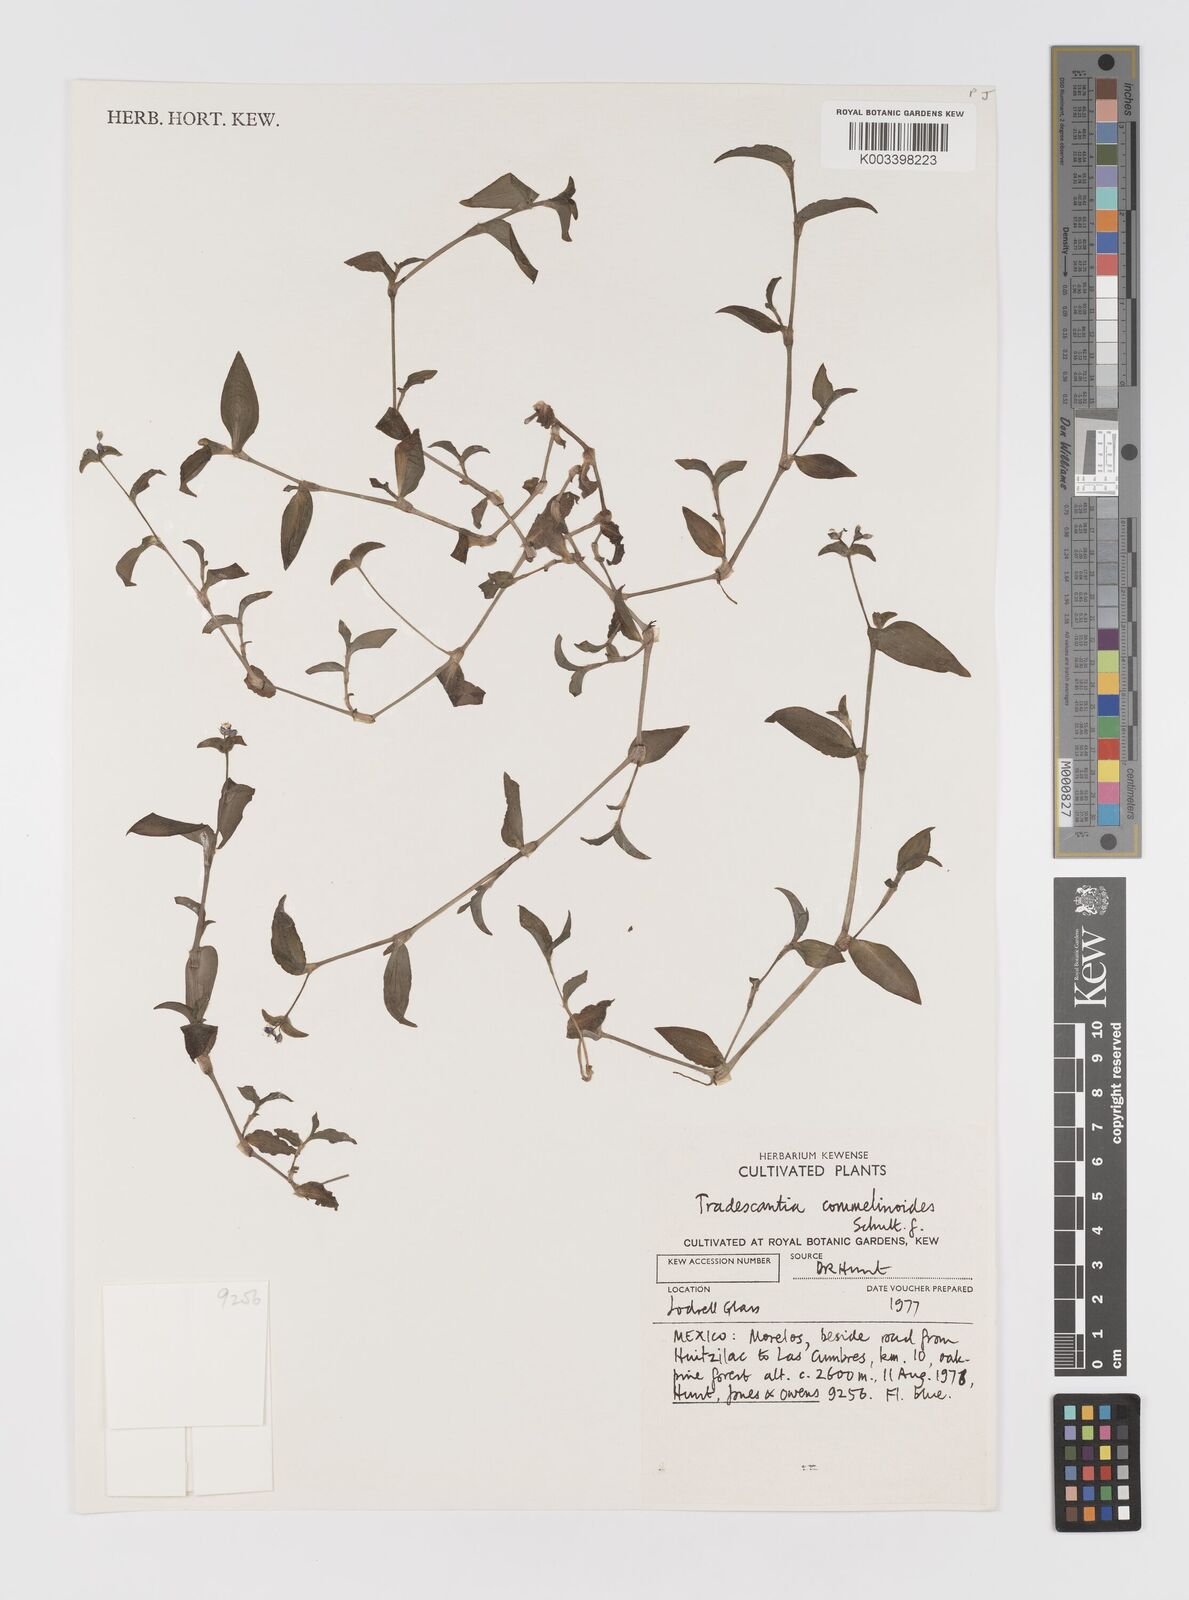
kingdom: Plantae
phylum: Tracheophyta
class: Liliopsida
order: Commelinales
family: Commelinaceae
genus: Tradescantia
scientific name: Tradescantia commelinoides
